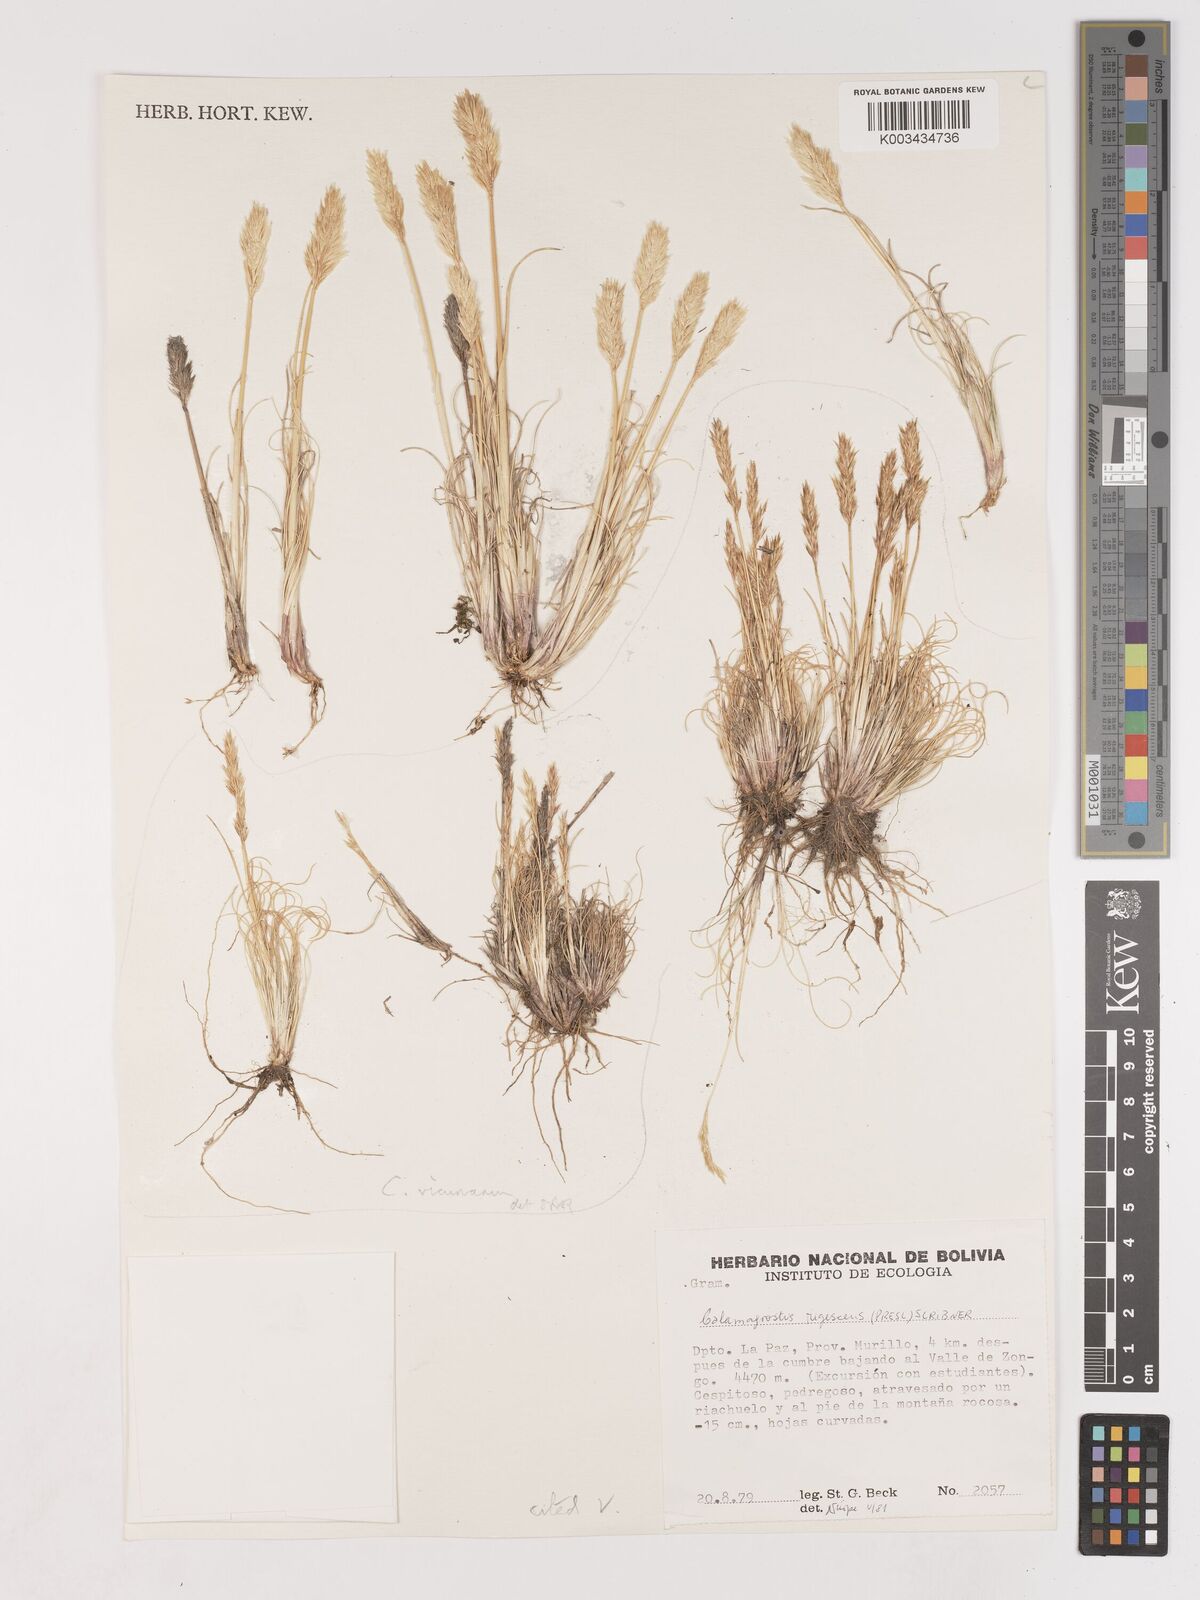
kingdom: Plantae
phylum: Tracheophyta
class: Liliopsida
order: Poales
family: Poaceae
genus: Cinnagrostis
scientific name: Cinnagrostis vicunarum
